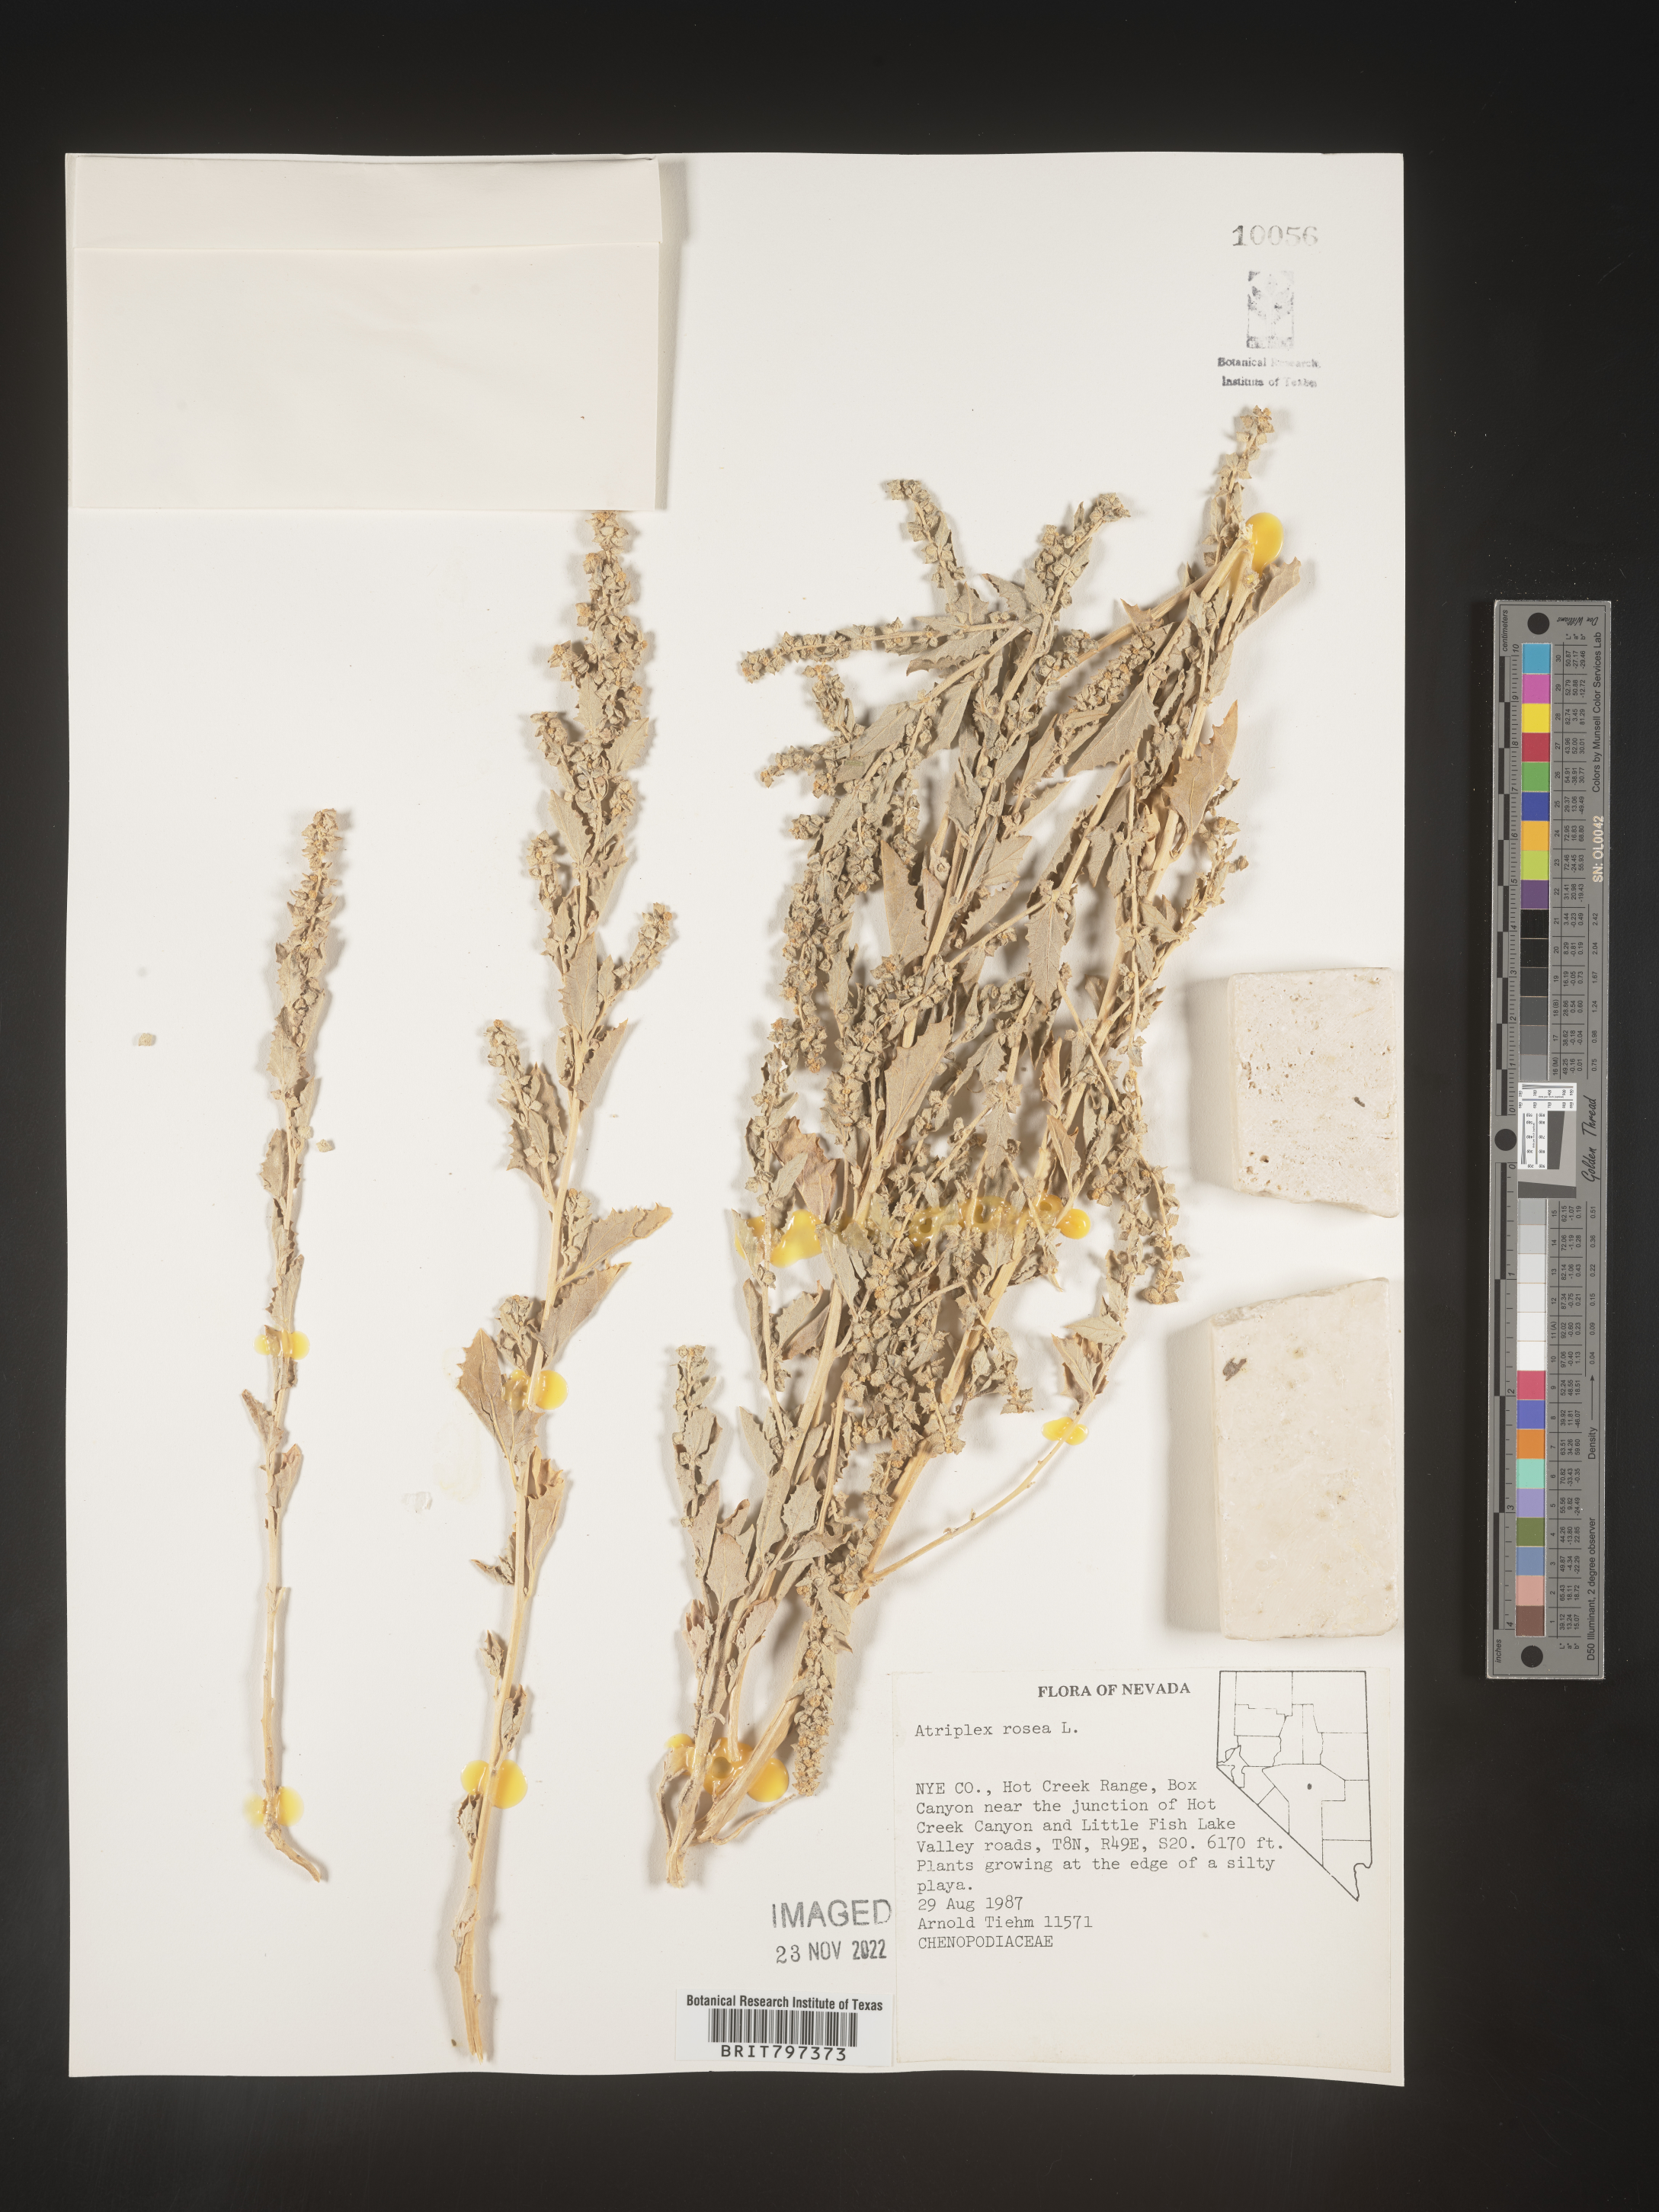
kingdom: Plantae
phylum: Tracheophyta
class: Magnoliopsida
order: Caryophyllales
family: Amaranthaceae
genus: Atriplex
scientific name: Atriplex rosea
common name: Tumbling saltweed
